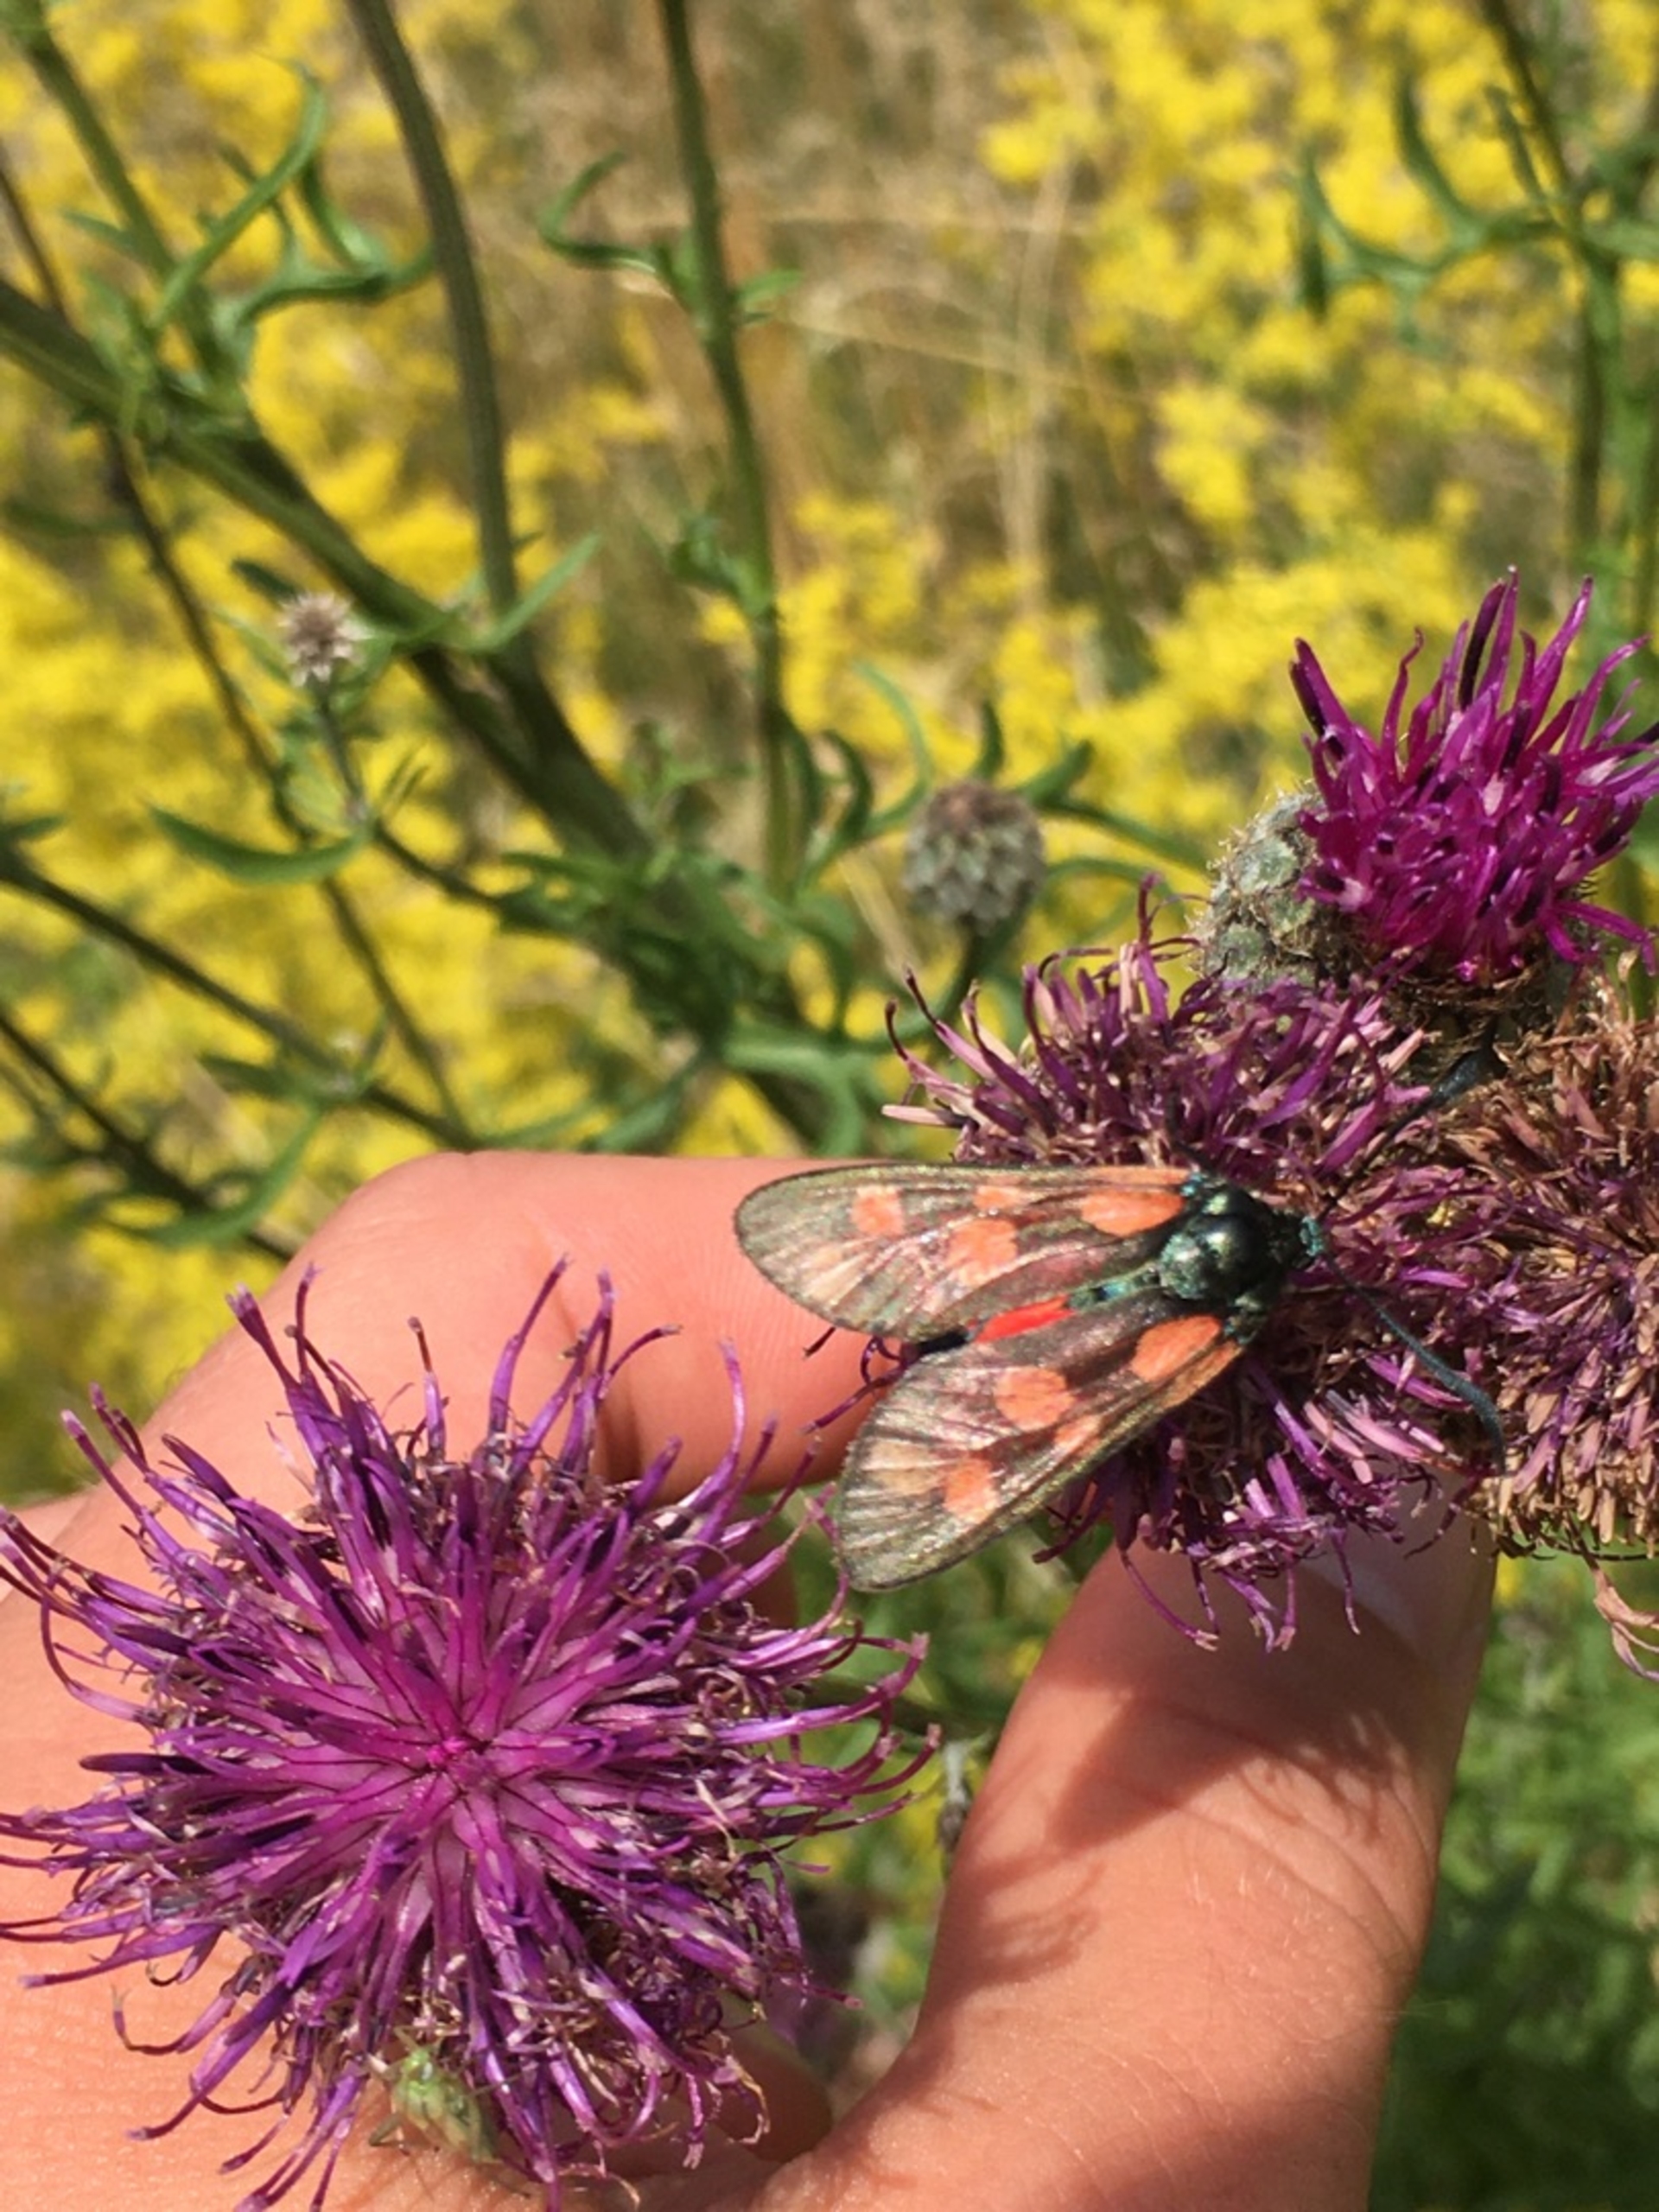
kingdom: Animalia
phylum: Arthropoda
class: Insecta
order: Lepidoptera
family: Zygaenidae
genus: Zygaena
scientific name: Zygaena filipendulae
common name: Seksplettet køllesværmer
